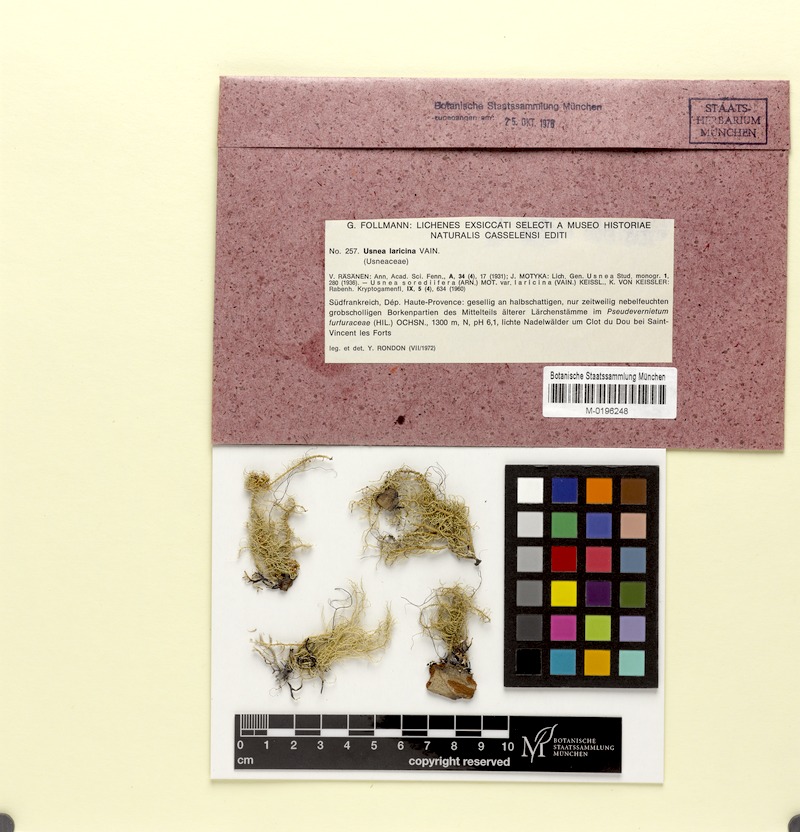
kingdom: Fungi
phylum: Ascomycota
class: Lecanoromycetes
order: Lecanorales
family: Parmeliaceae
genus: Usnea
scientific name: Usnea lapponica
